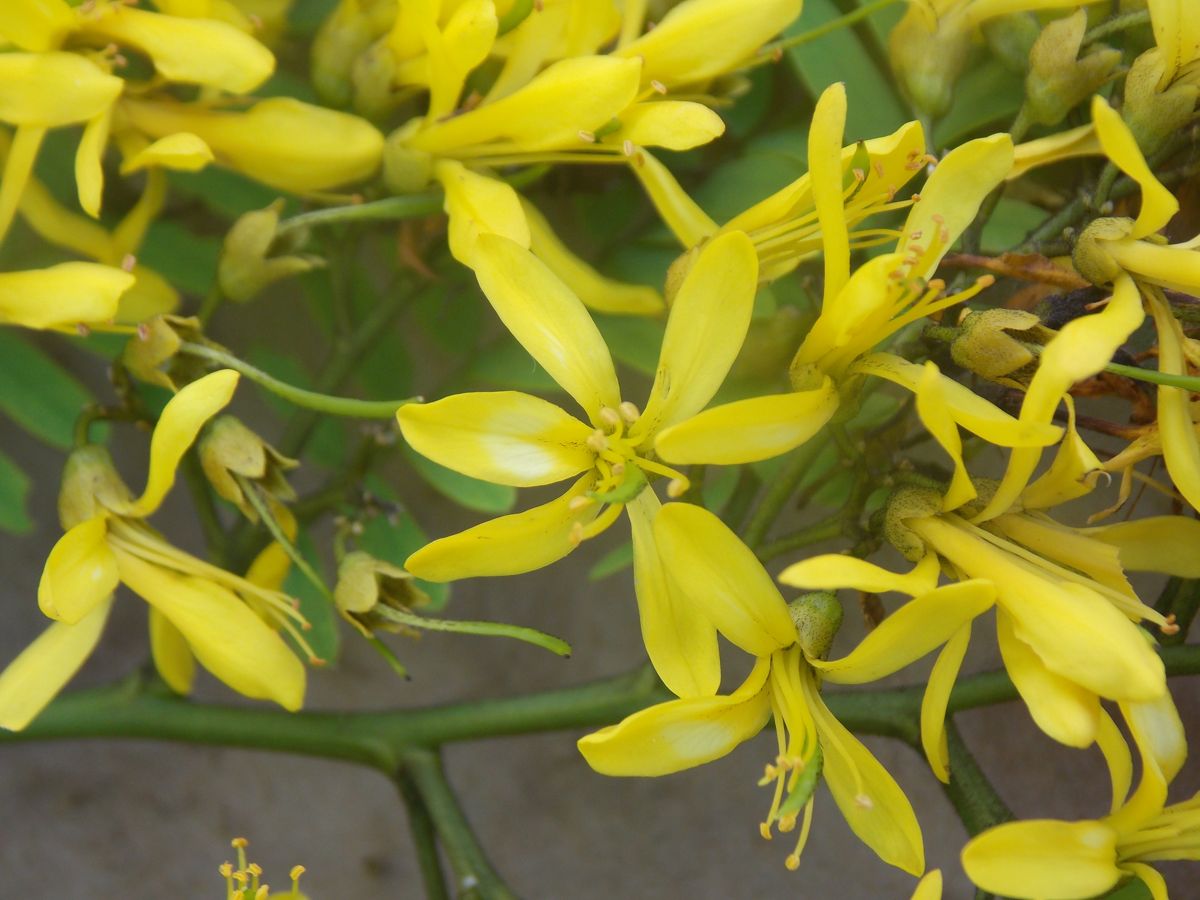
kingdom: Plantae
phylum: Tracheophyta
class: Magnoliopsida
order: Fabales
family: Fabaceae
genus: Poeppigia
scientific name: Poeppigia procera
